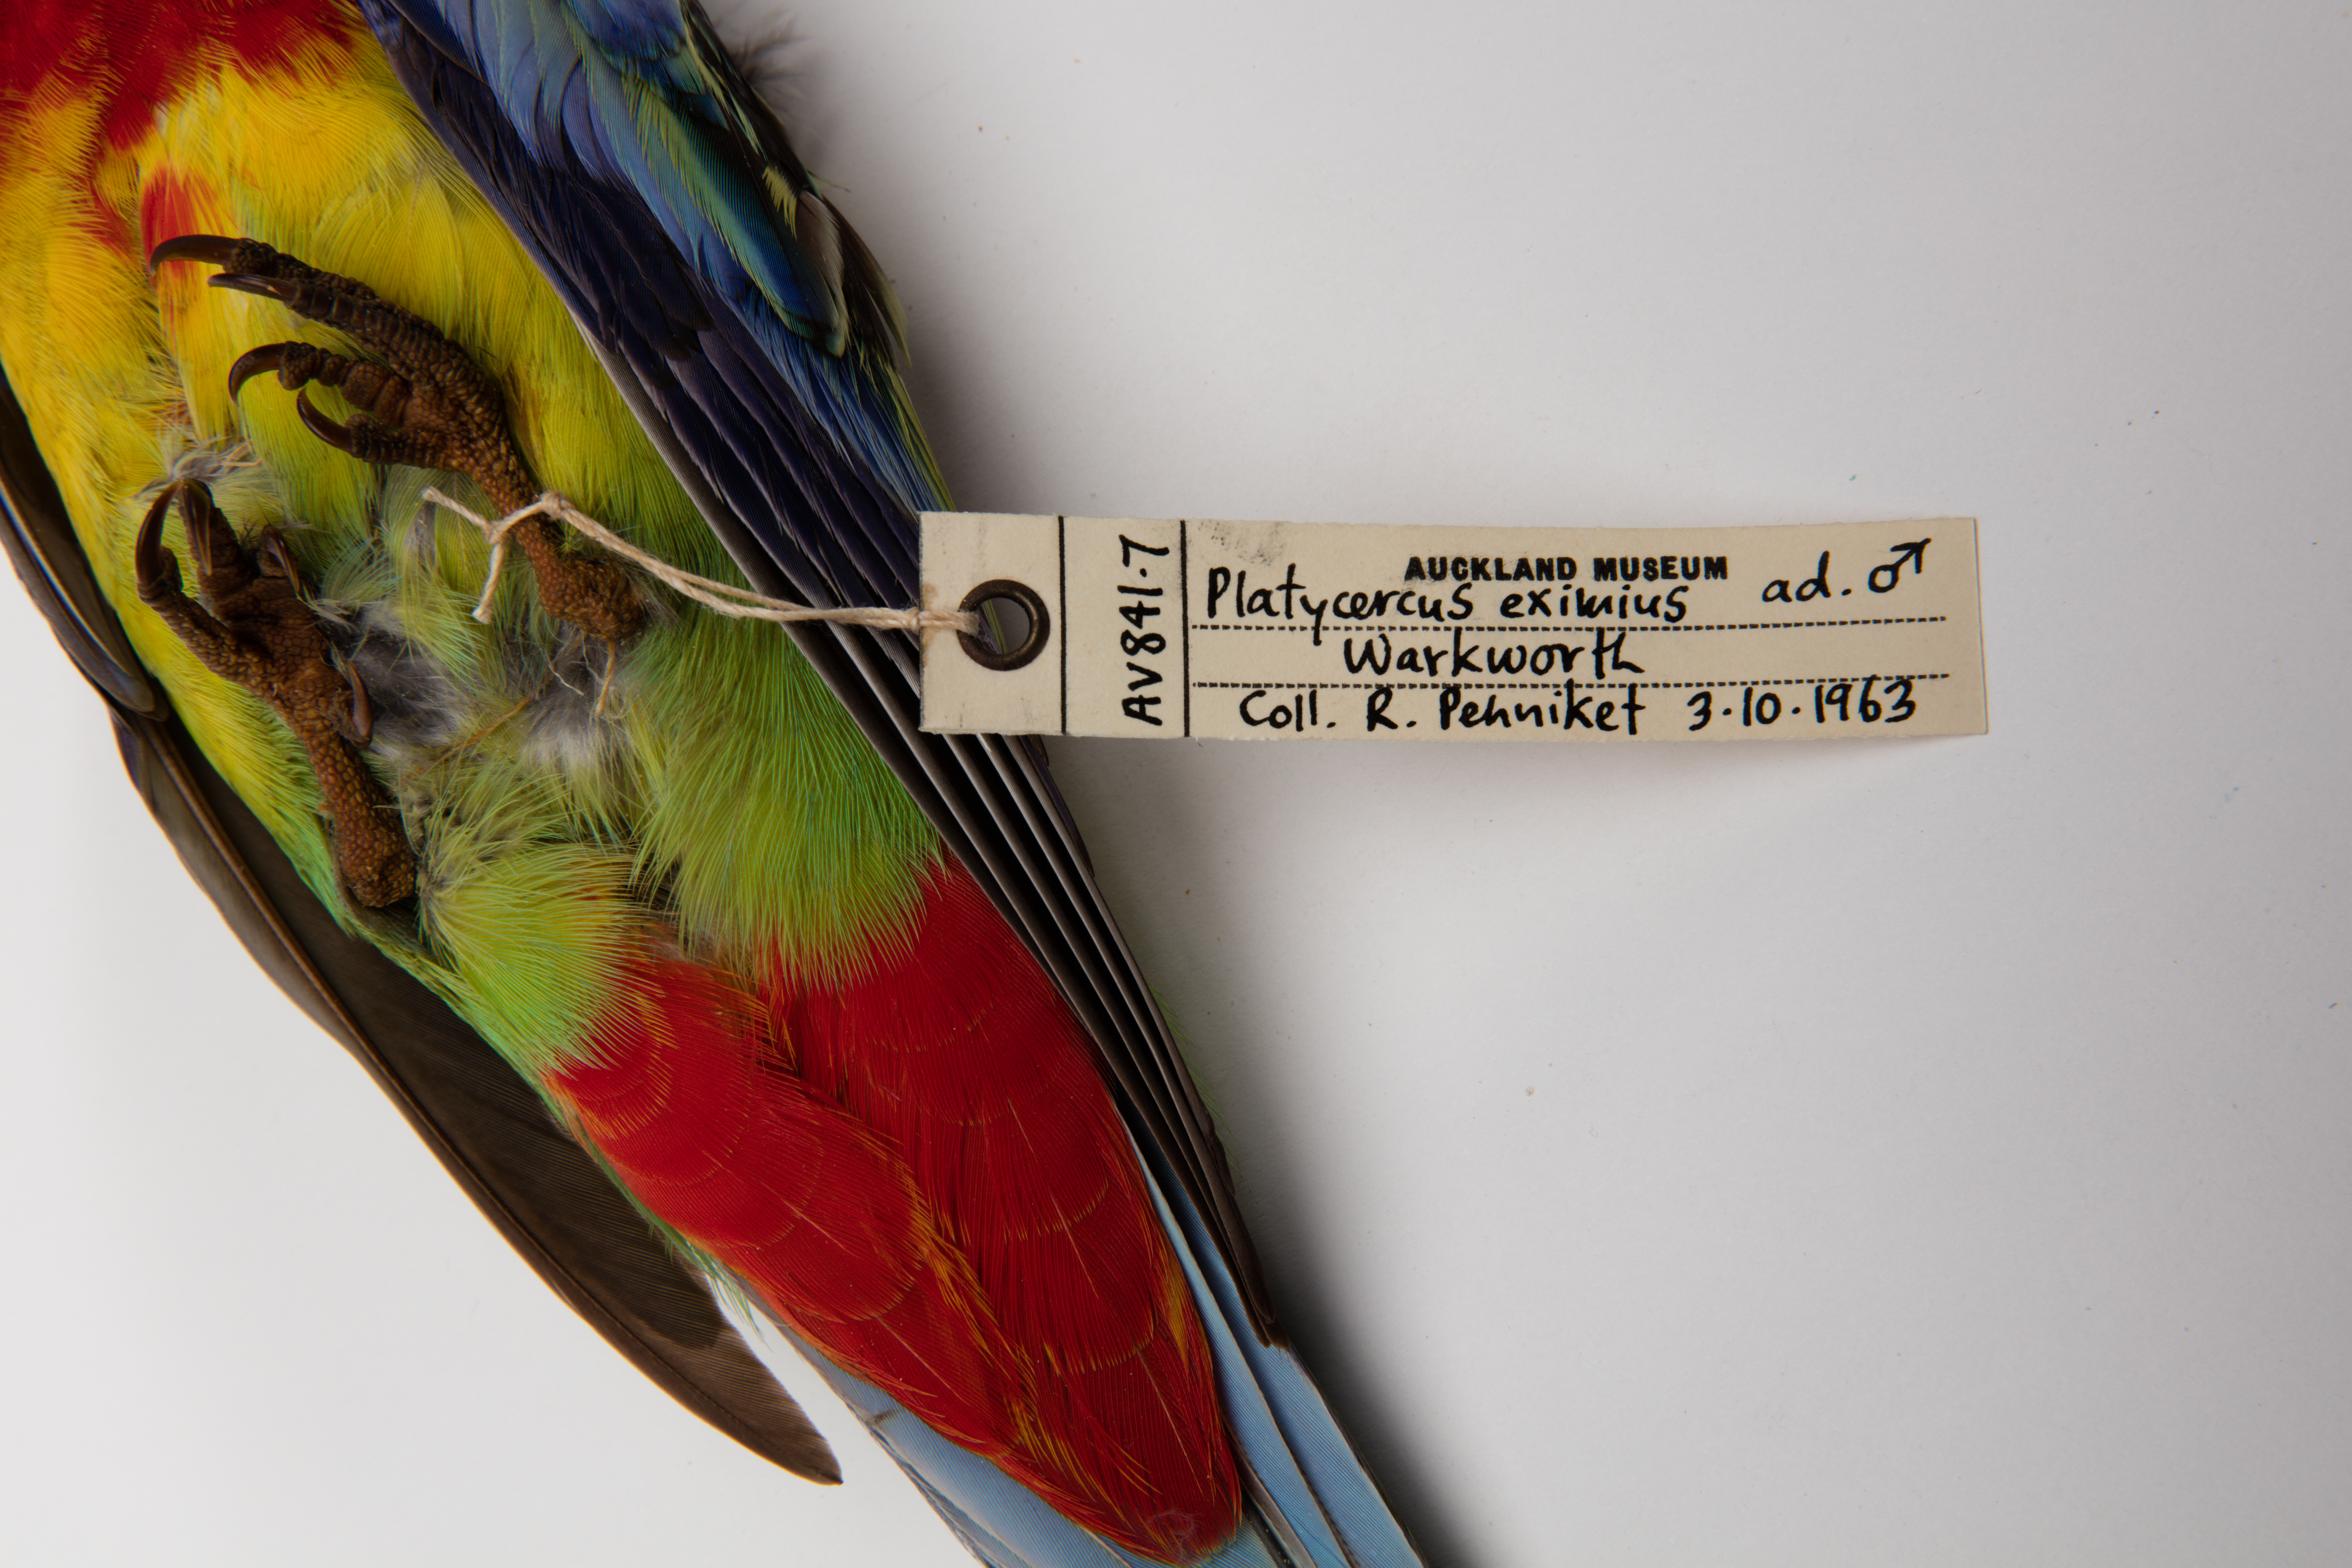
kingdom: Animalia
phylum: Chordata
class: Aves
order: Psittaciformes
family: Psittacidae
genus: Platycercus
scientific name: Platycercus eximius
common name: Eastern rosella
